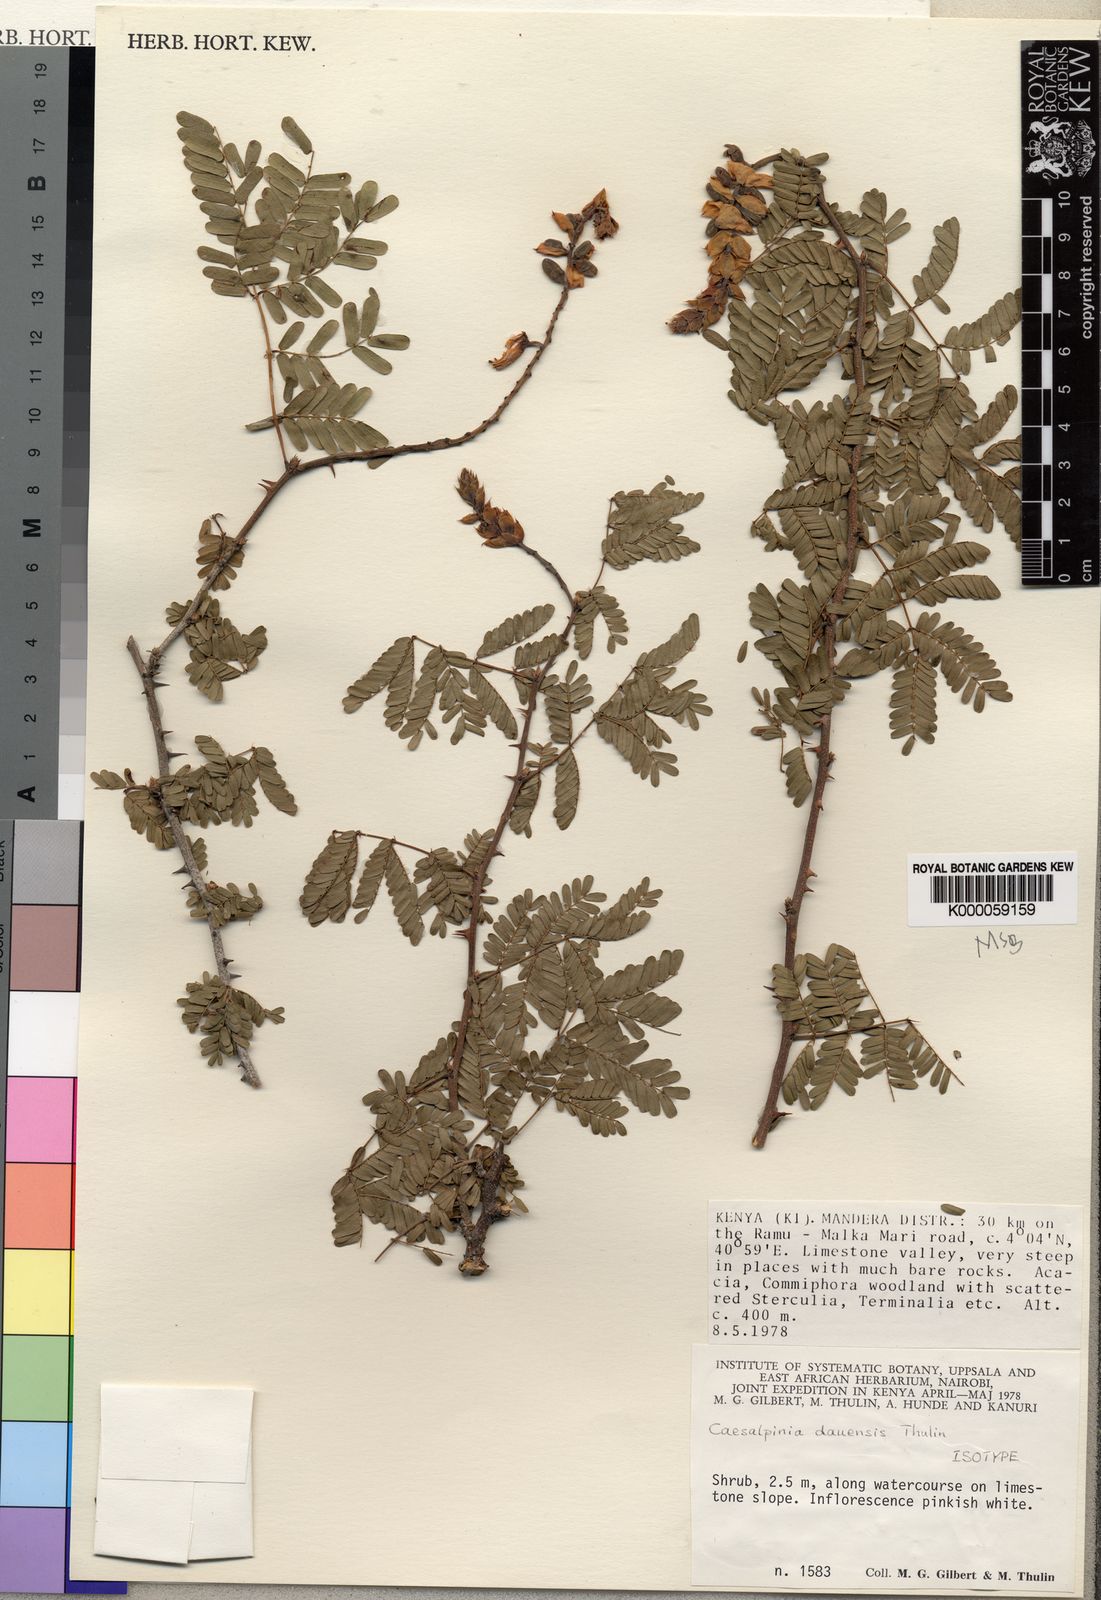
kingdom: Plantae
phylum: Tracheophyta
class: Magnoliopsida
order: Fabales
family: Fabaceae
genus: Gelrebia
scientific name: Gelrebia dauensis
